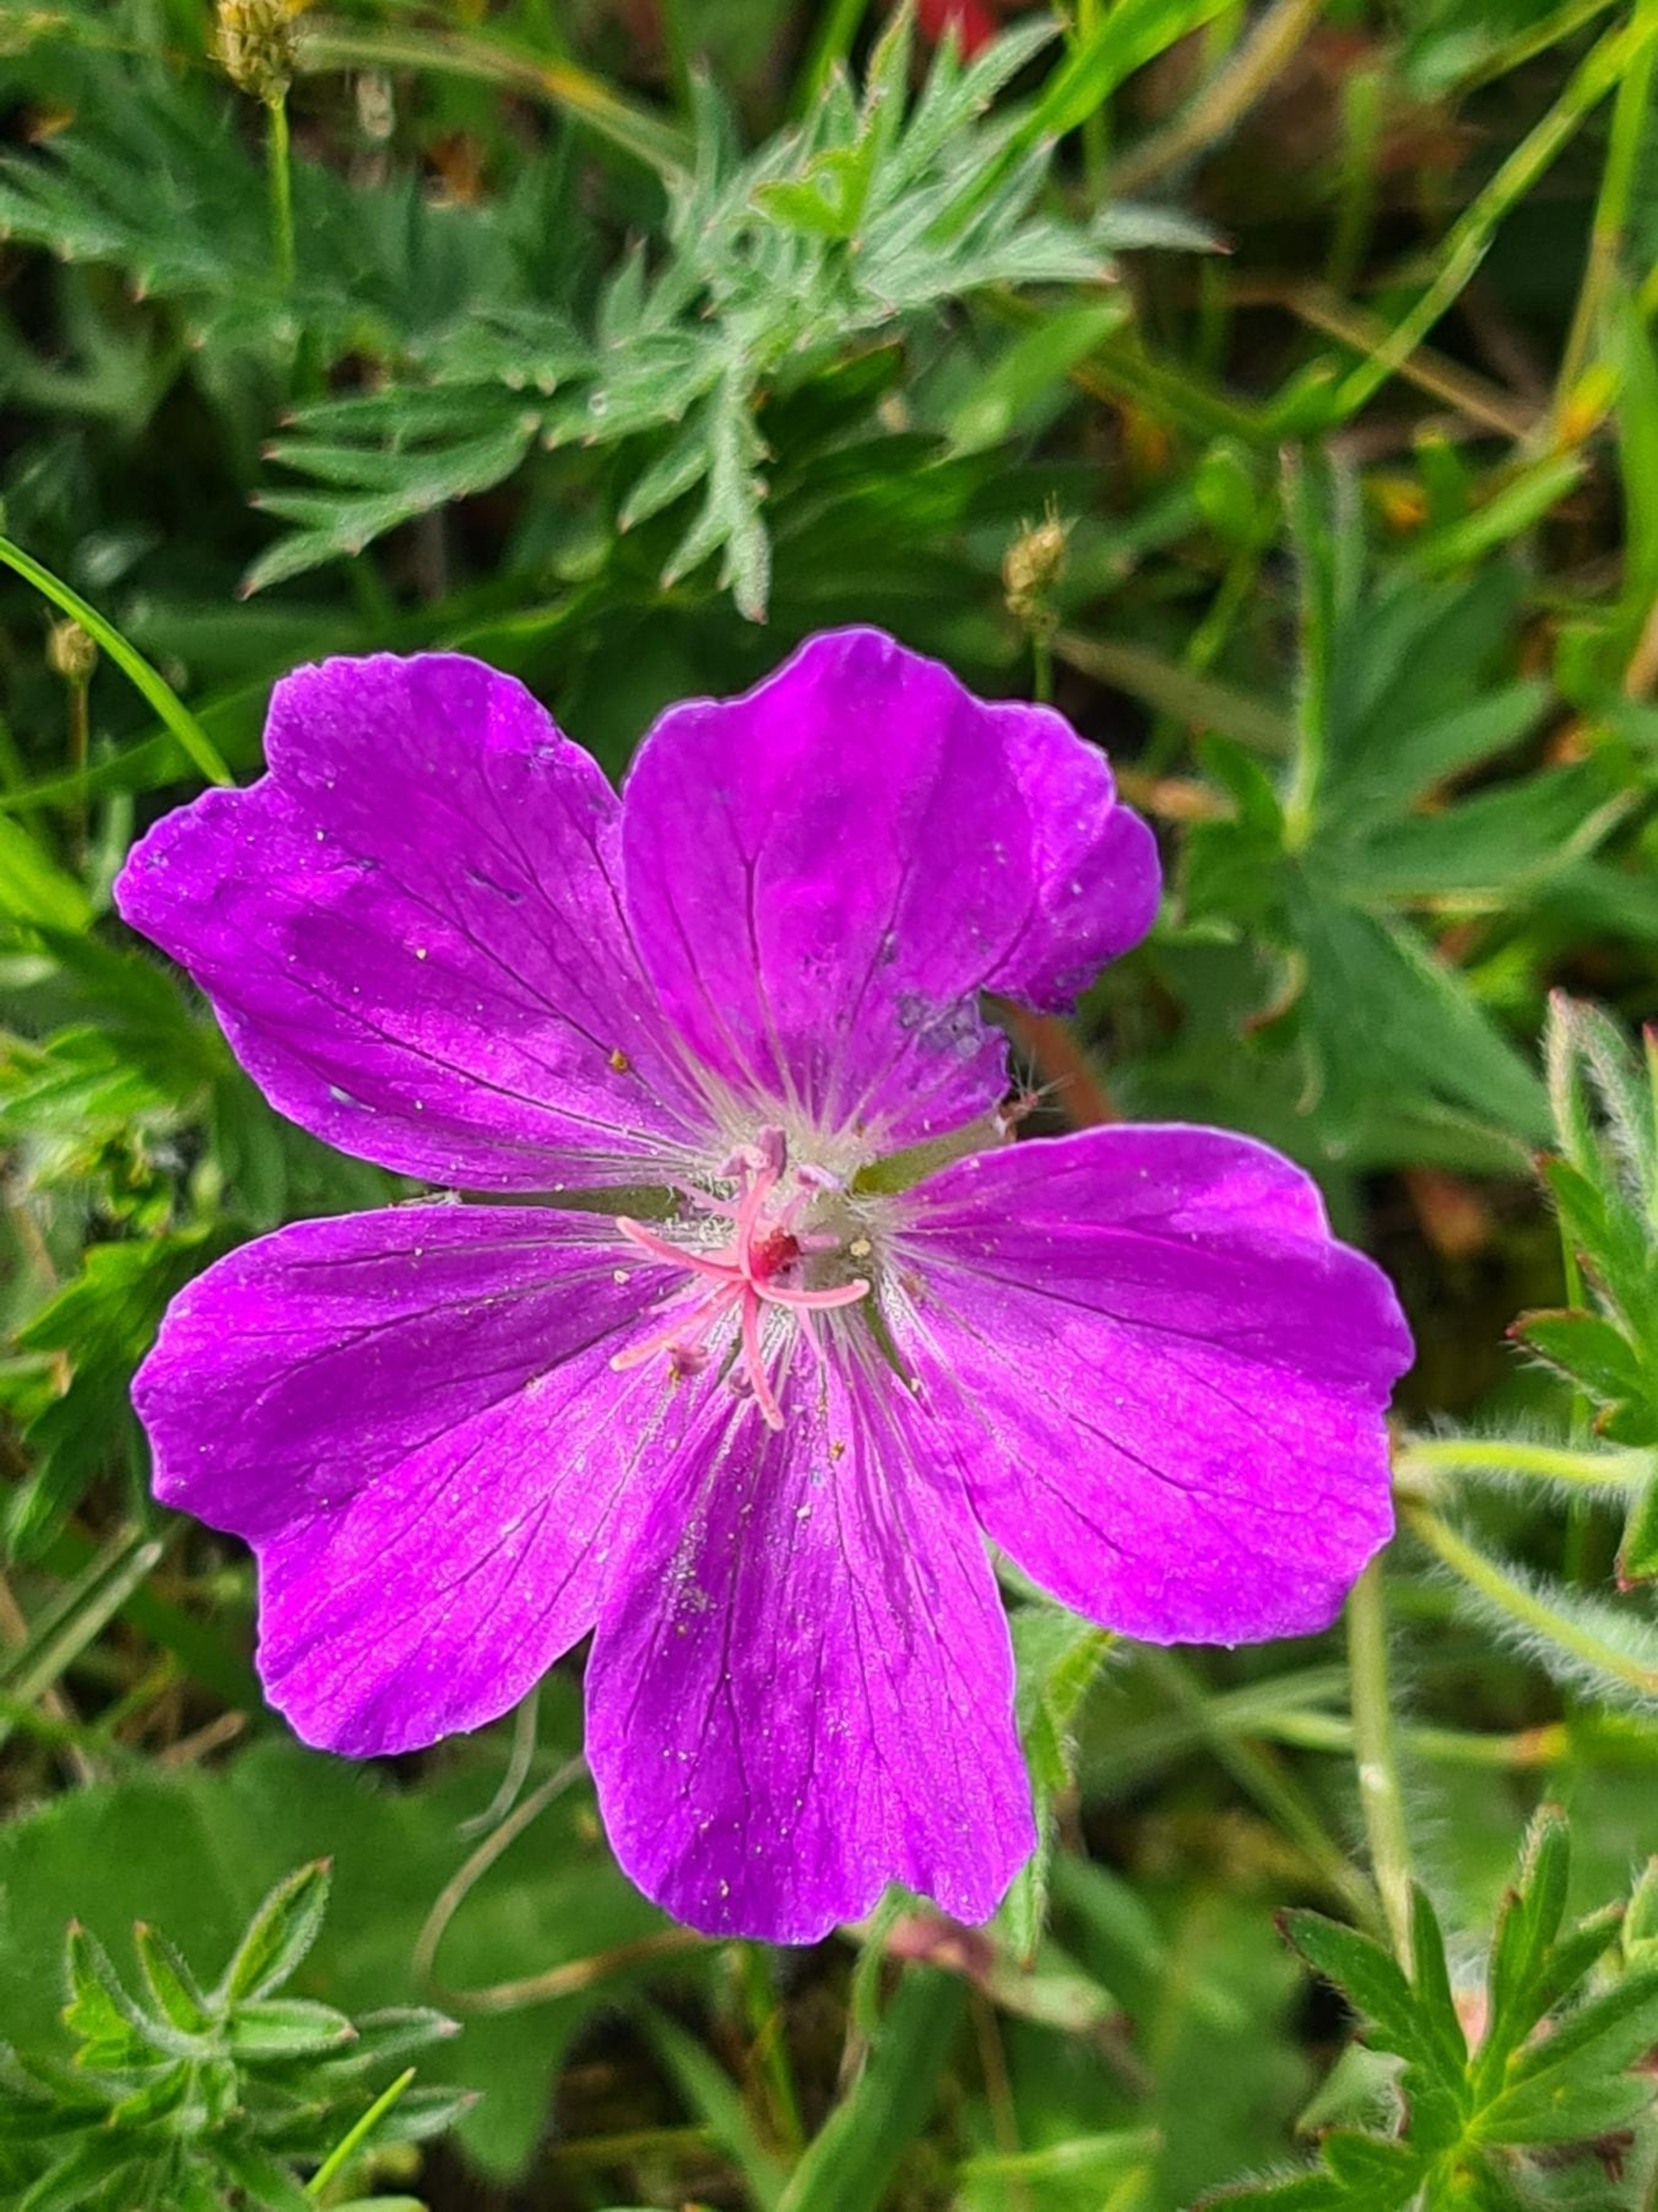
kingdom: Plantae
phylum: Tracheophyta
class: Magnoliopsida
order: Geraniales
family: Geraniaceae
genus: Geranium
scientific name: Geranium sanguineum
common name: Blodrød storkenæb
